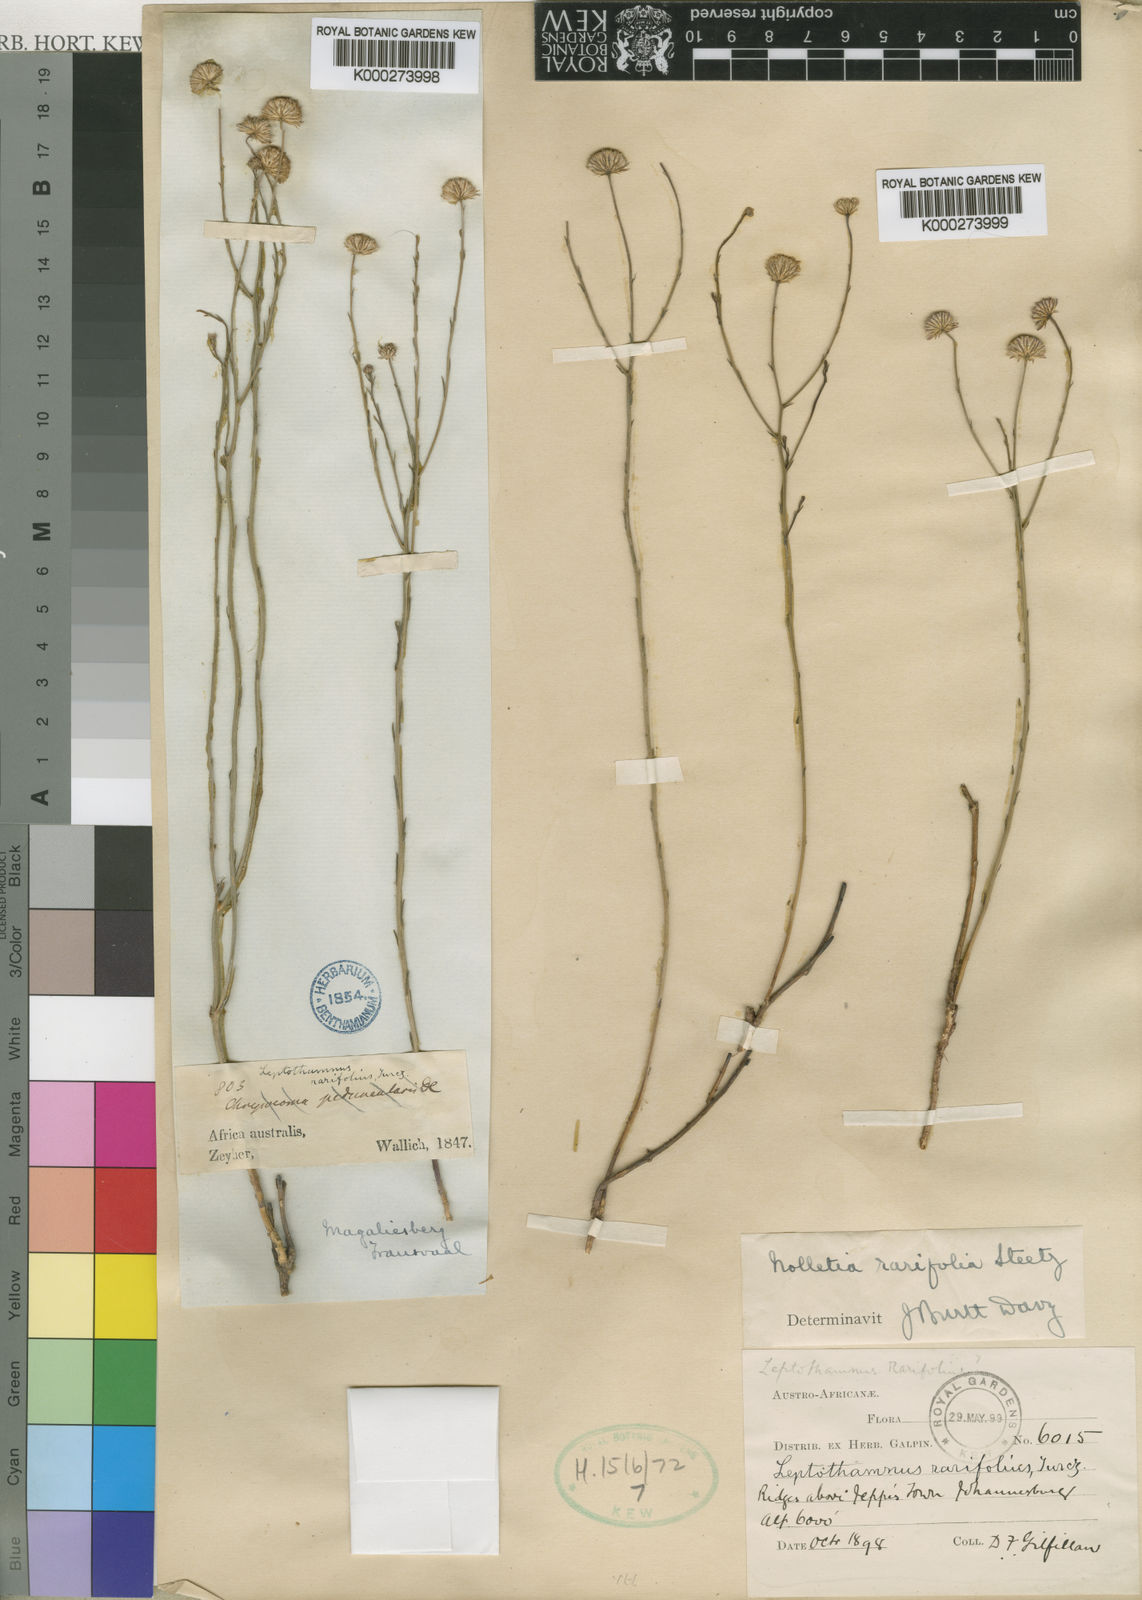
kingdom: Plantae
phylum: Tracheophyta
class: Magnoliopsida
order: Asterales
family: Asteraceae
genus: Nolletia
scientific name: Nolletia rarifolia
